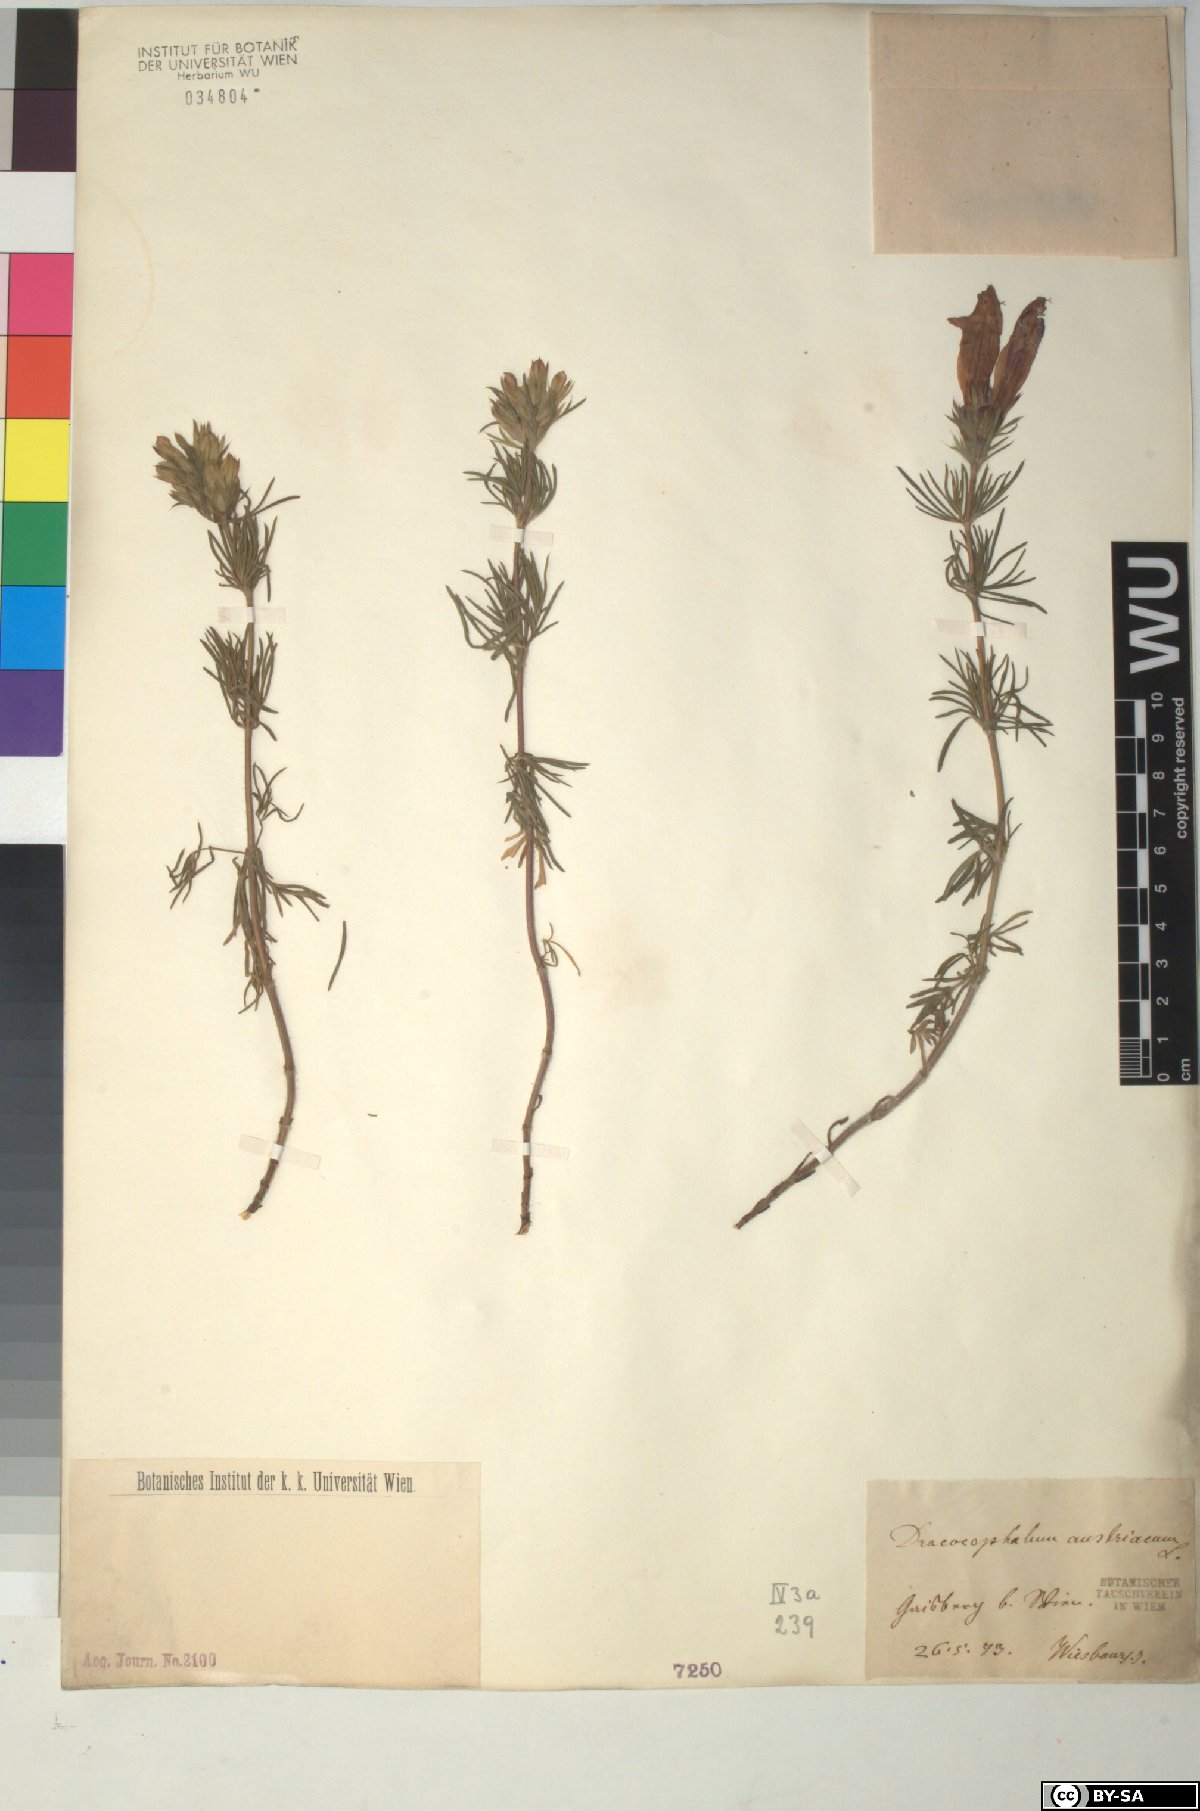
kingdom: Plantae
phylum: Tracheophyta
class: Magnoliopsida
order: Lamiales
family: Lamiaceae
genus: Dracocephalum
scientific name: Dracocephalum austriacum
